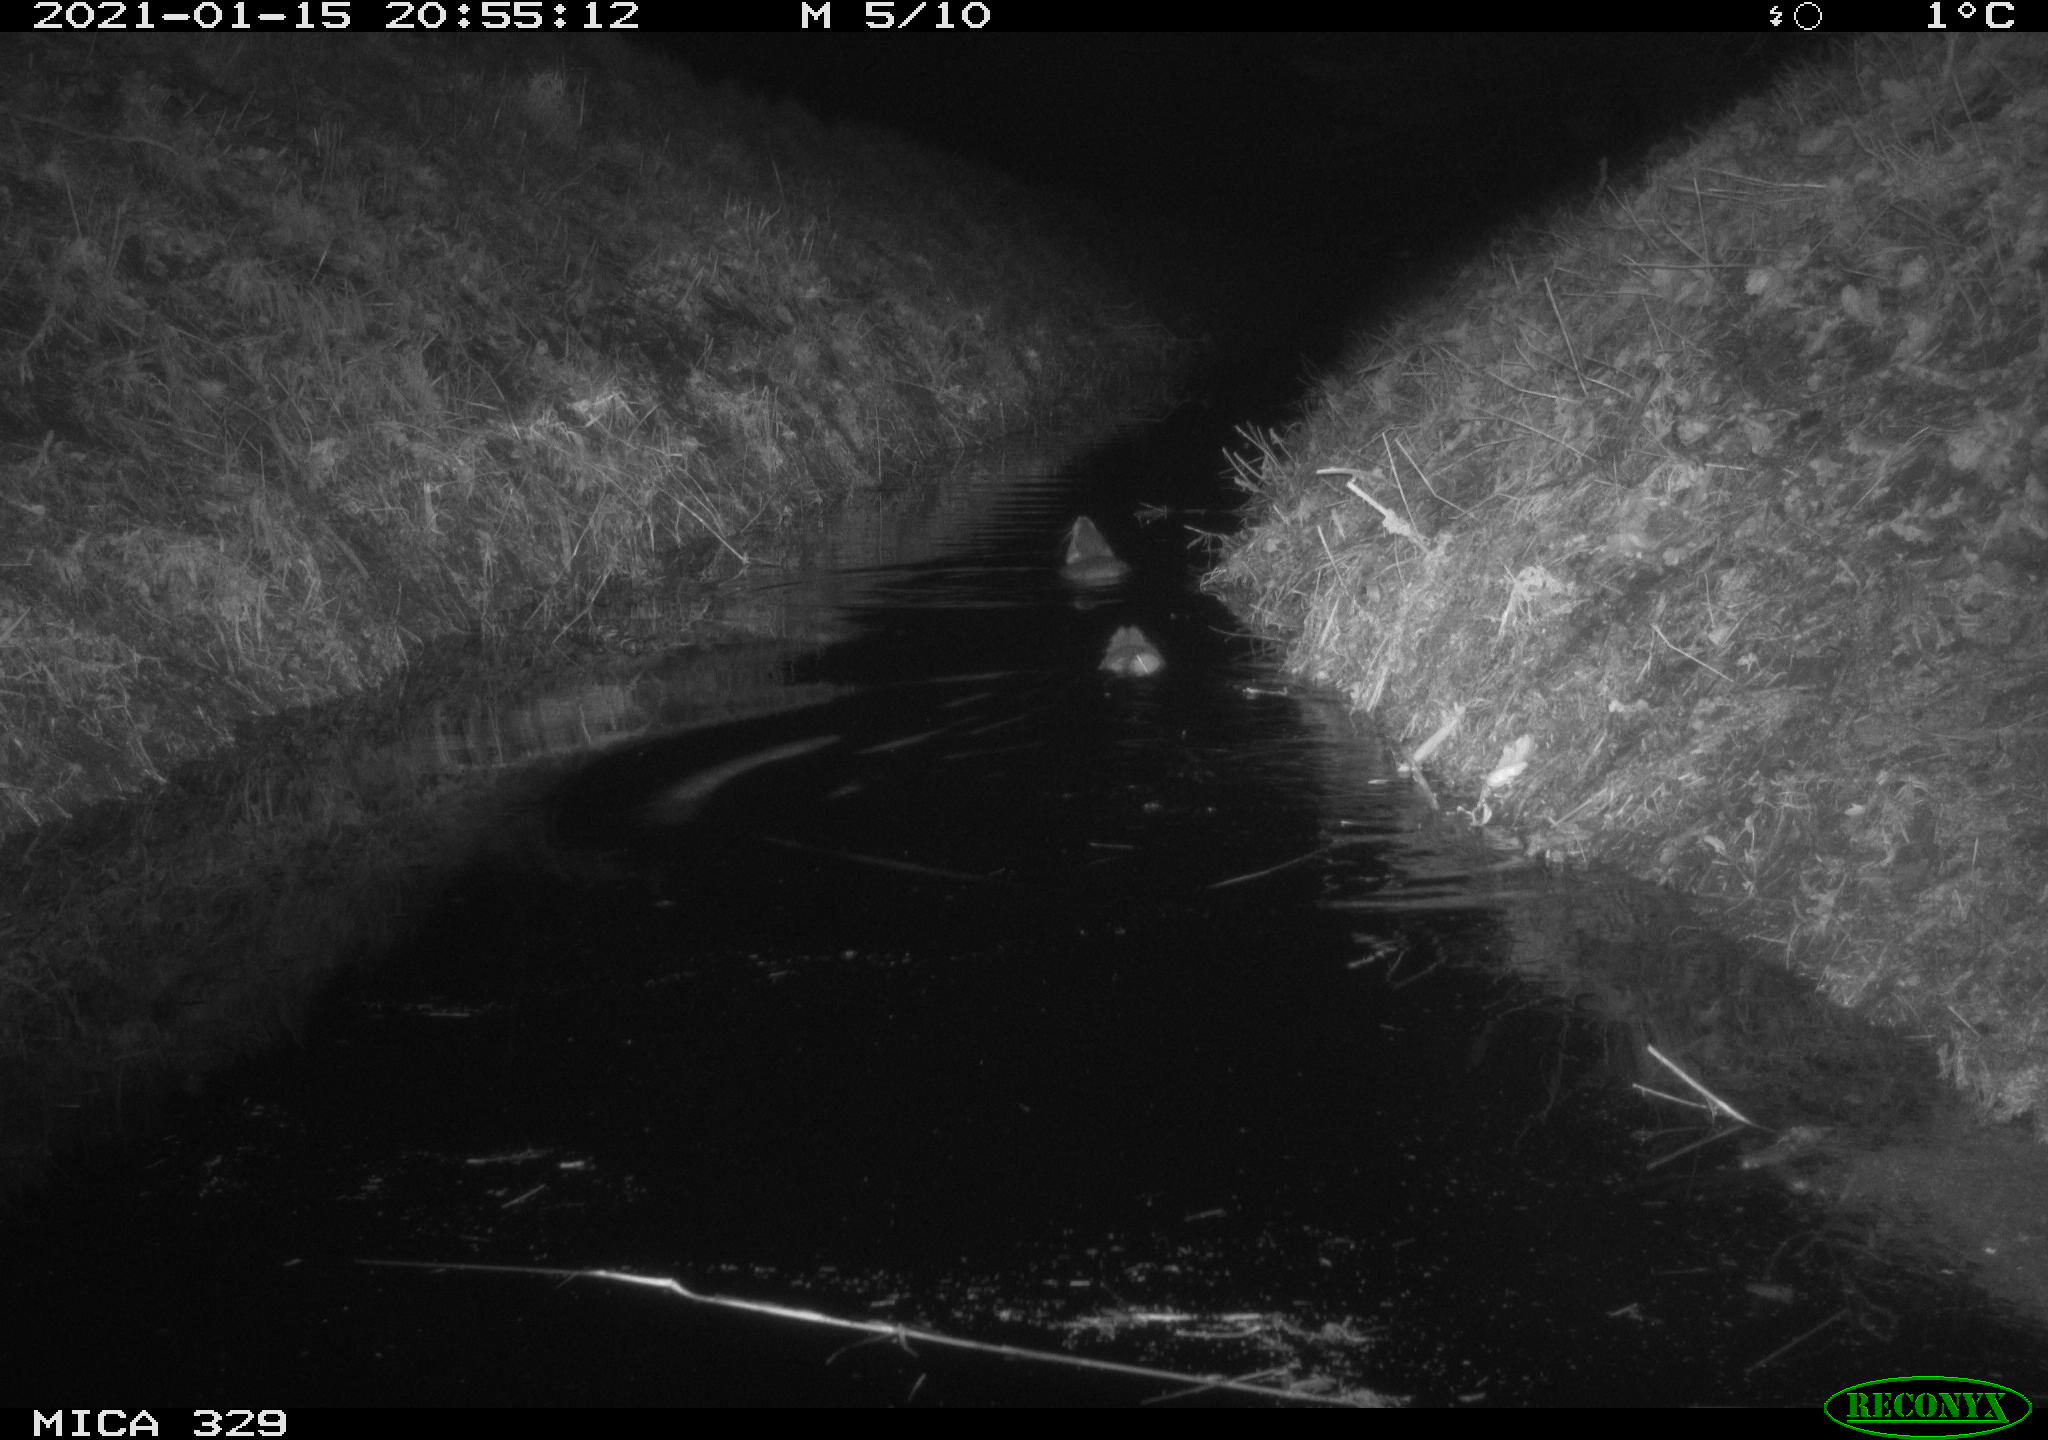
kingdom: Animalia
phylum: Chordata
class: Mammalia
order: Rodentia
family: Myocastoridae
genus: Myocastor
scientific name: Myocastor coypus
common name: Coypu
